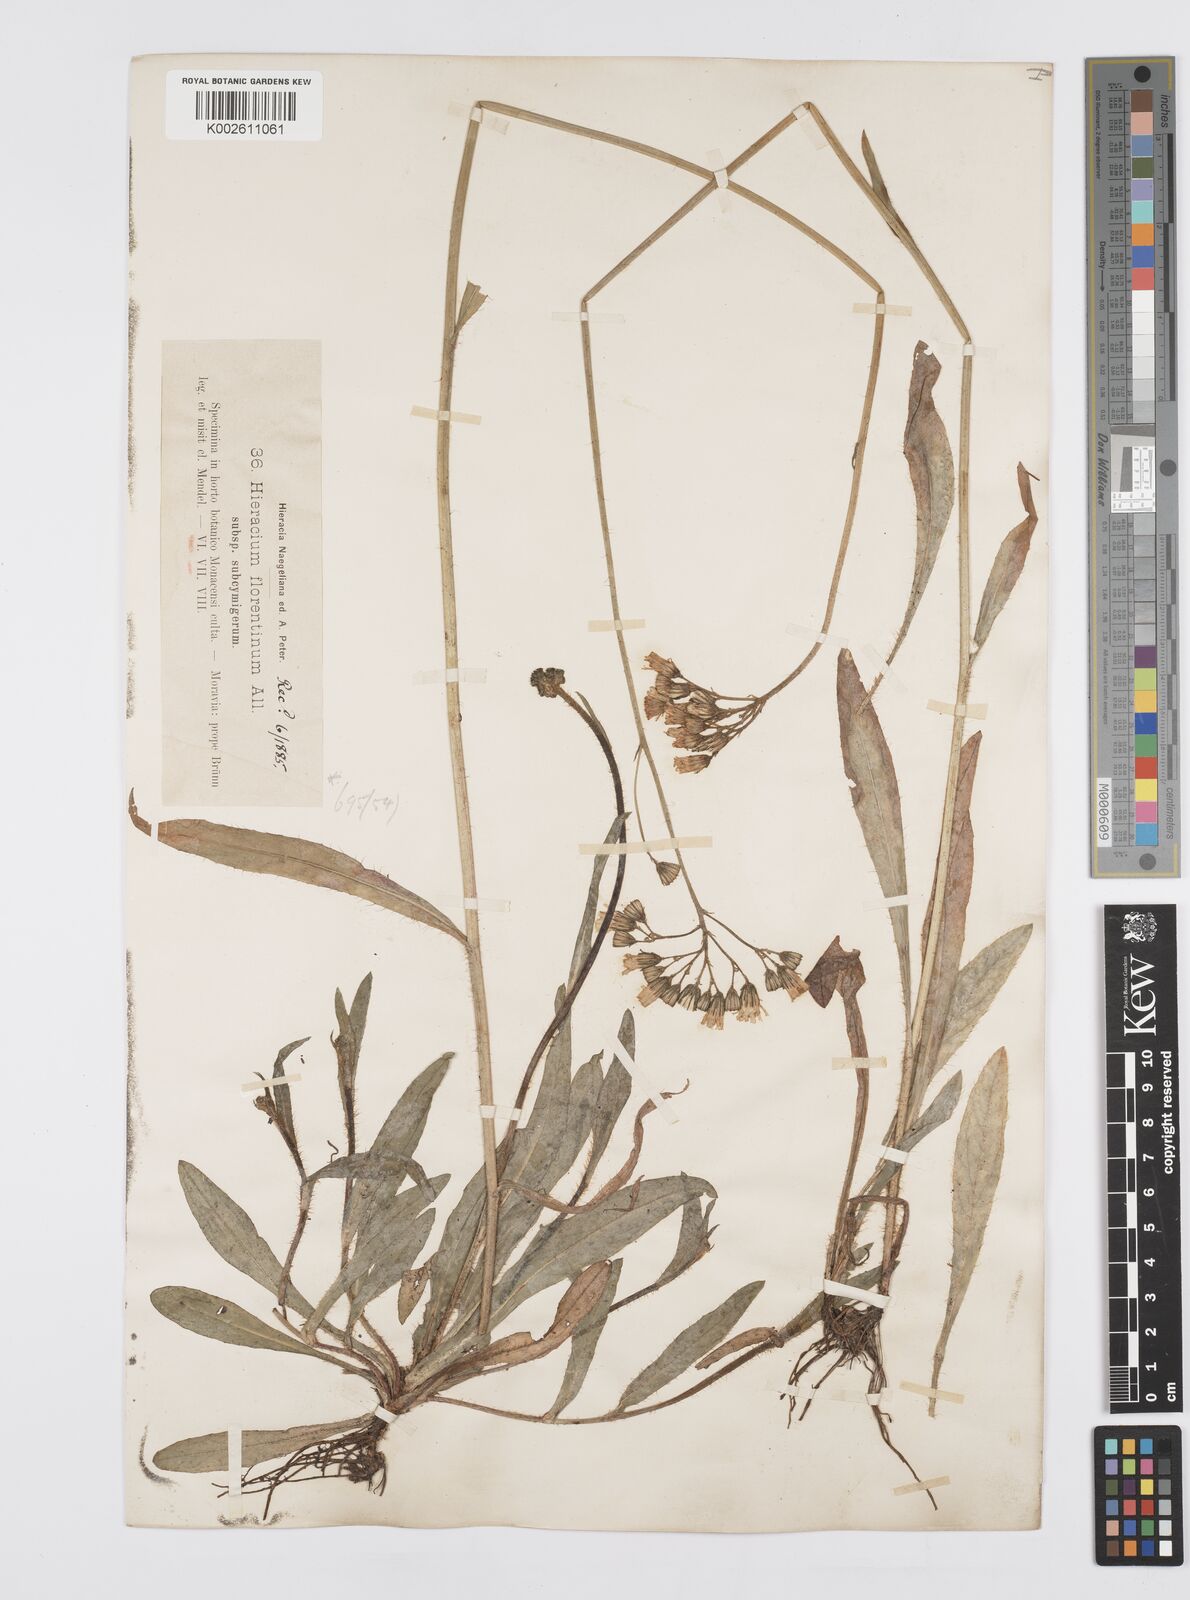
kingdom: Plantae
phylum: Tracheophyta
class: Magnoliopsida
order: Asterales
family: Asteraceae
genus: Pilosella
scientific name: Pilosella piloselloides
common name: Glaucous king-devil
